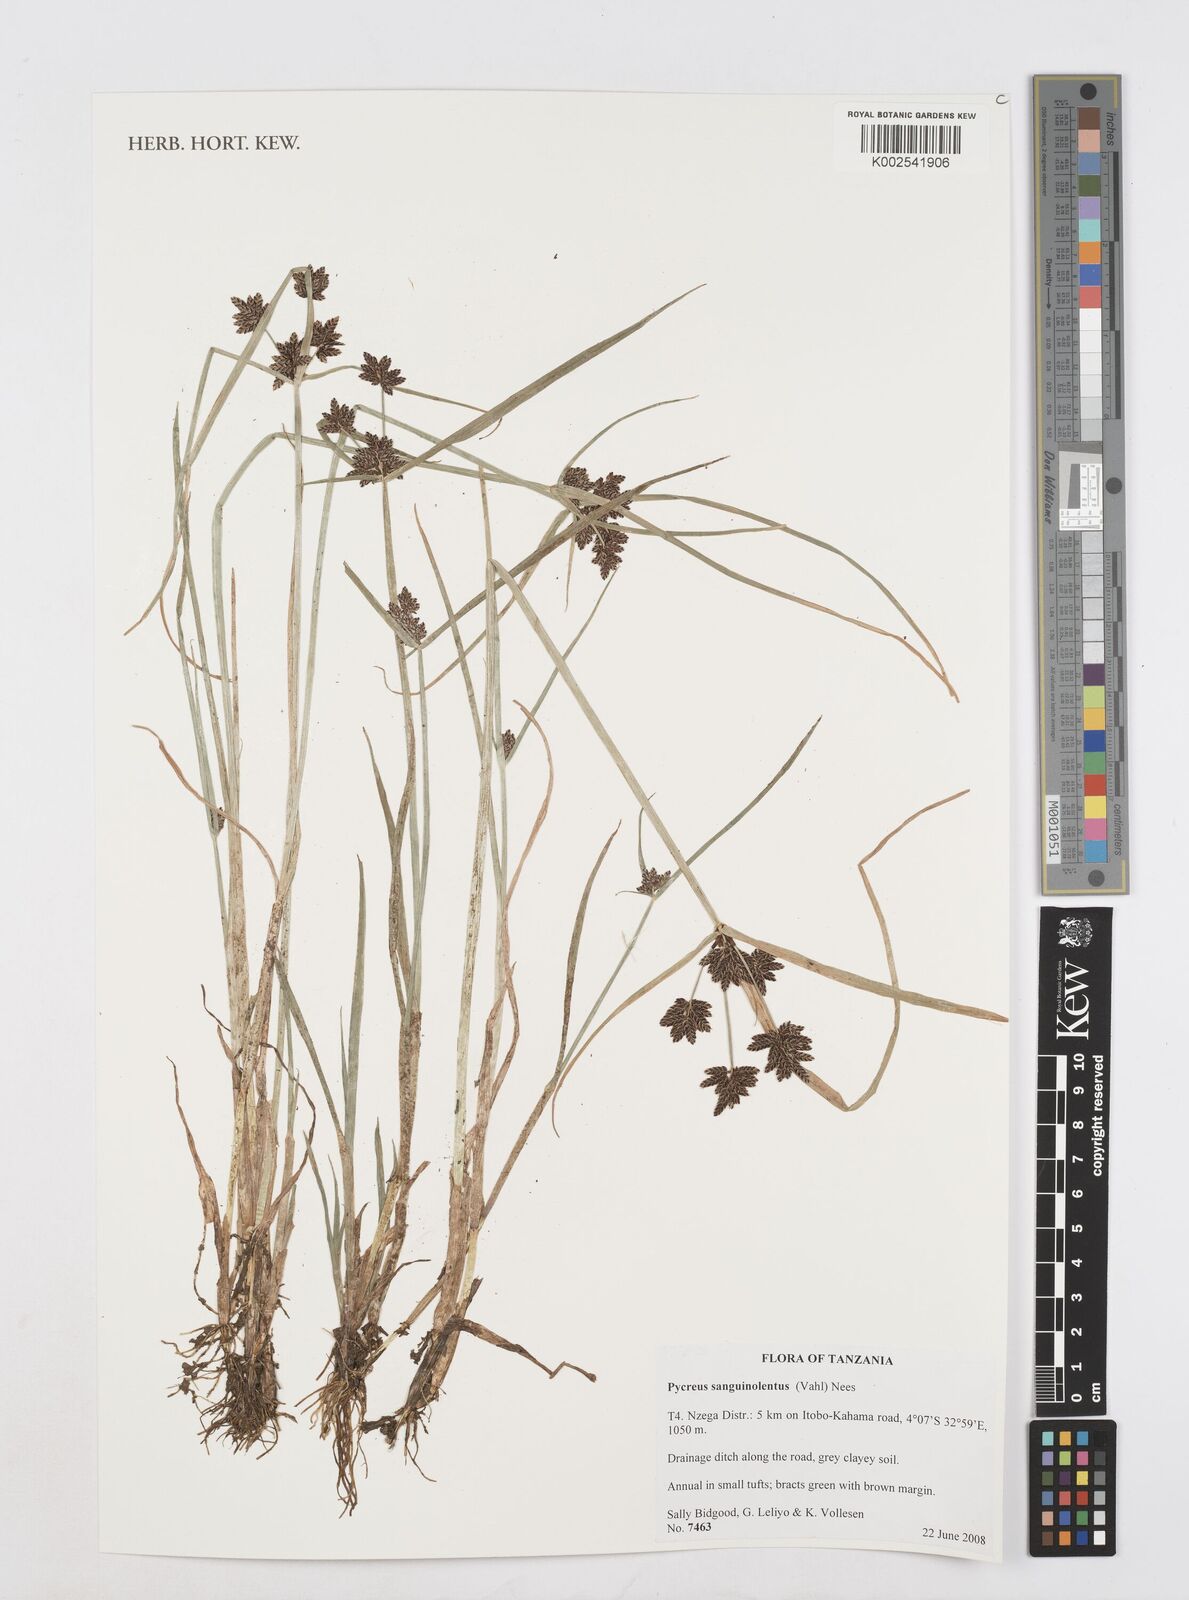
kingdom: Plantae
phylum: Tracheophyta
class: Liliopsida
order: Poales
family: Cyperaceae
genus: Cyperus
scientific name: Cyperus sanguinolentus
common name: Purpleglume flatsedge
